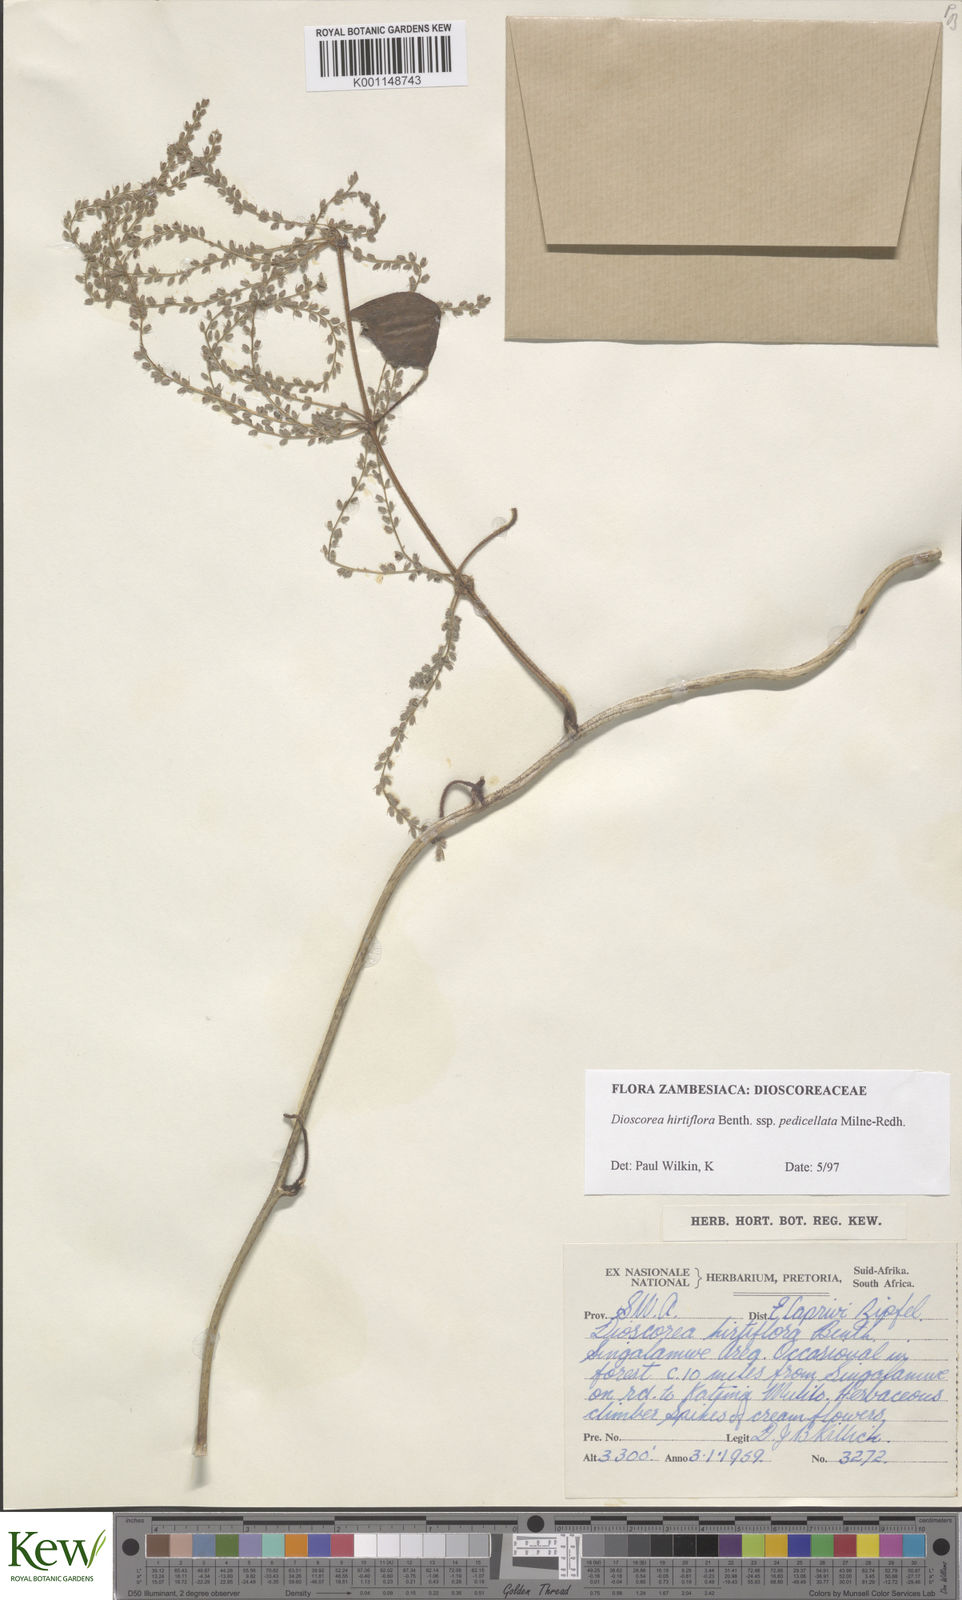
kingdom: Plantae
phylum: Tracheophyta
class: Liliopsida
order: Dioscoreales
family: Dioscoreaceae
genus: Dioscorea
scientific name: Dioscorea hirtiflora
